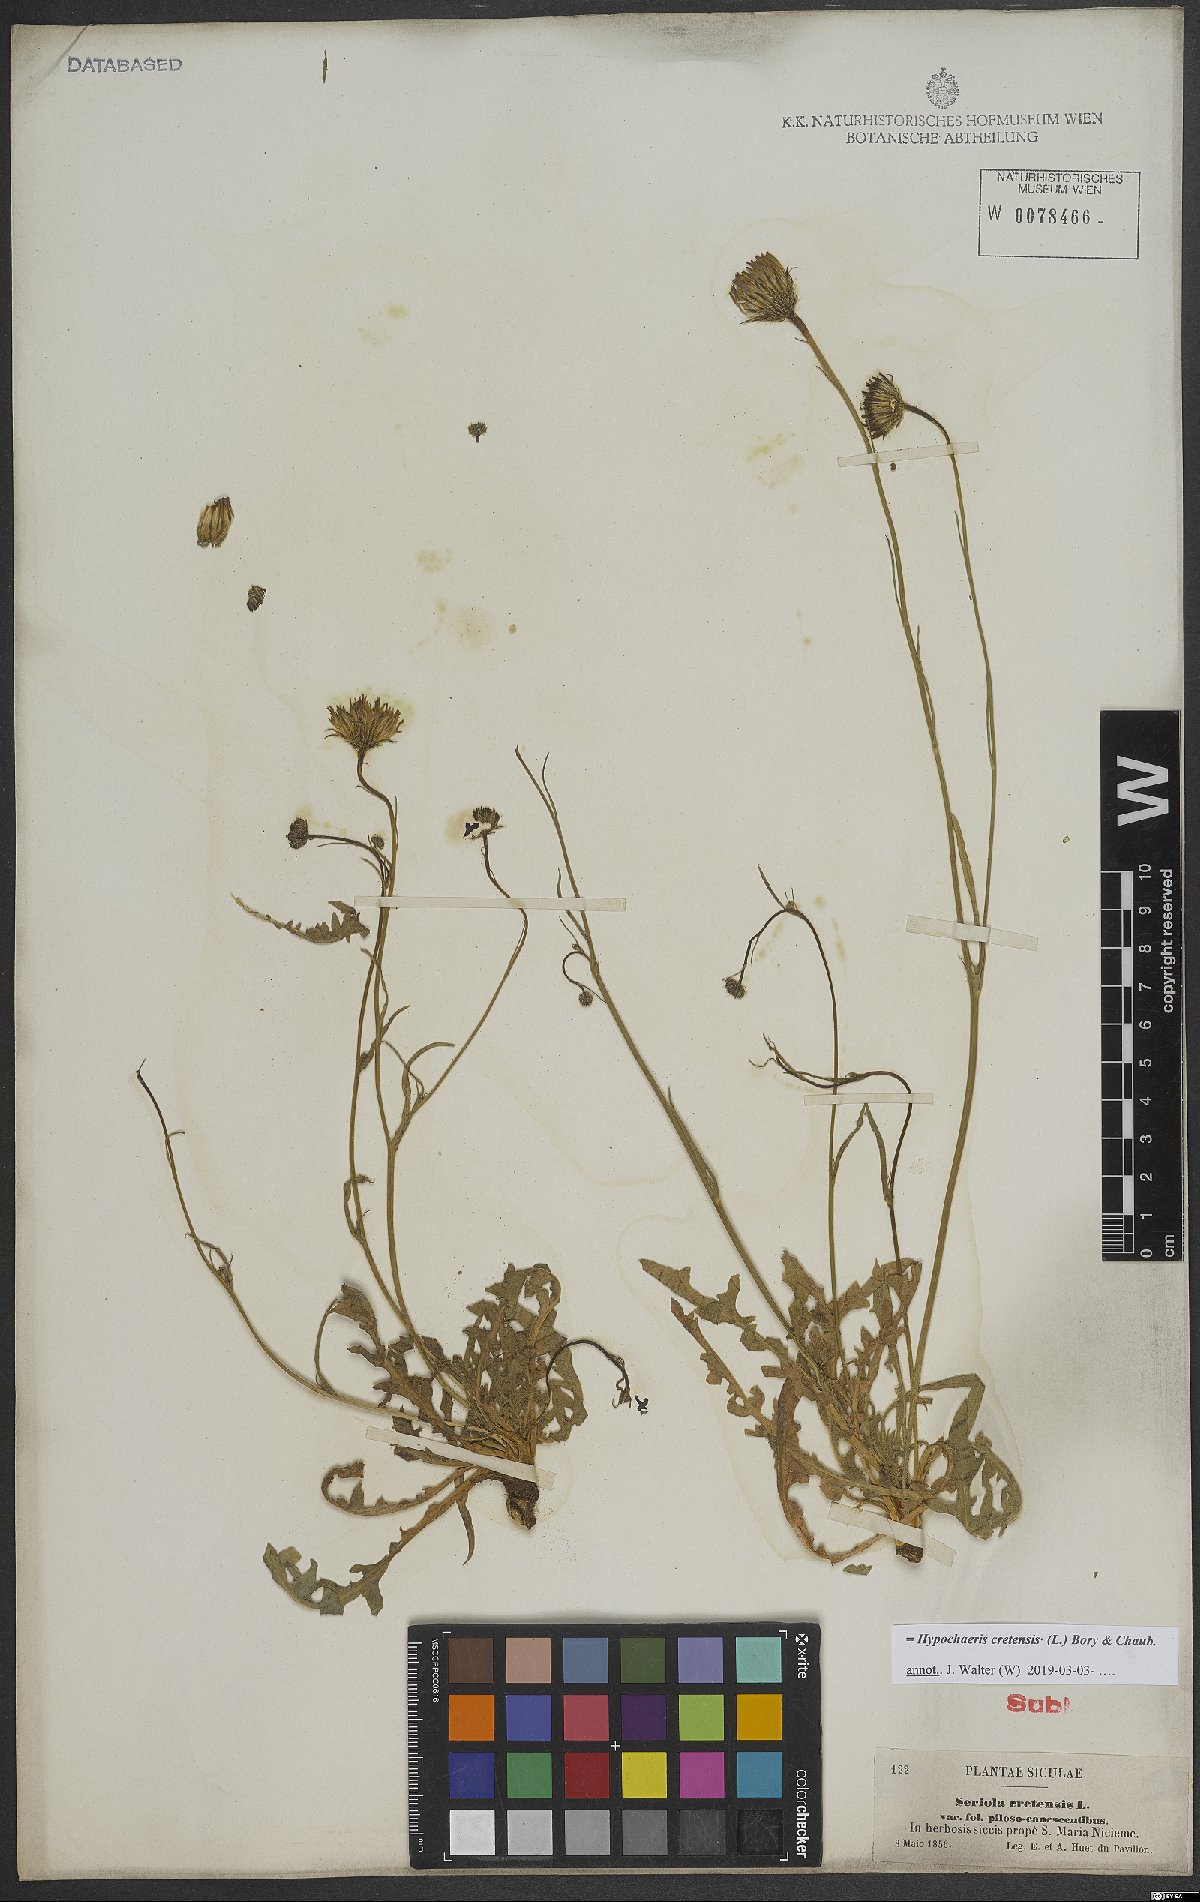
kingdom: Plantae
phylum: Tracheophyta
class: Magnoliopsida
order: Asterales
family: Asteraceae
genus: Hypochaeris
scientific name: Hypochaeris cretensis
